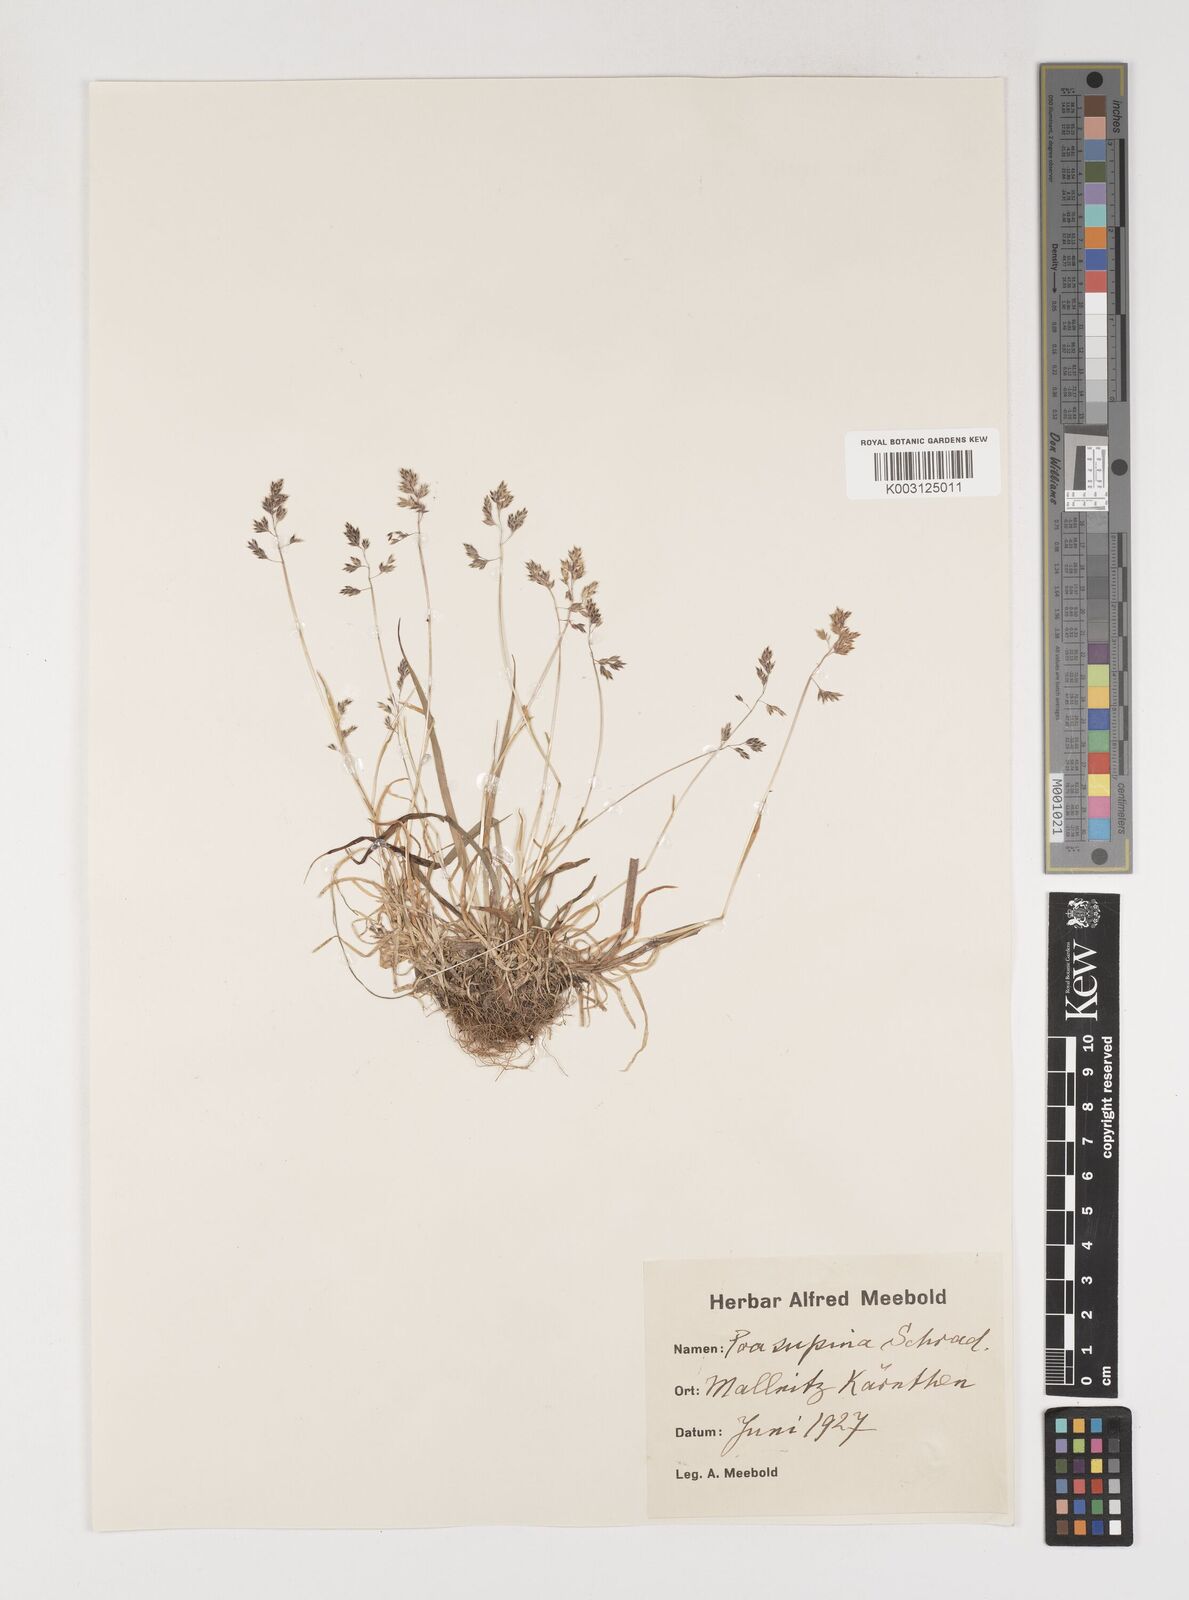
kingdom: Plantae
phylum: Tracheophyta
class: Liliopsida
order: Poales
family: Poaceae
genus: Poa
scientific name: Poa supina
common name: Supina bluegrass
